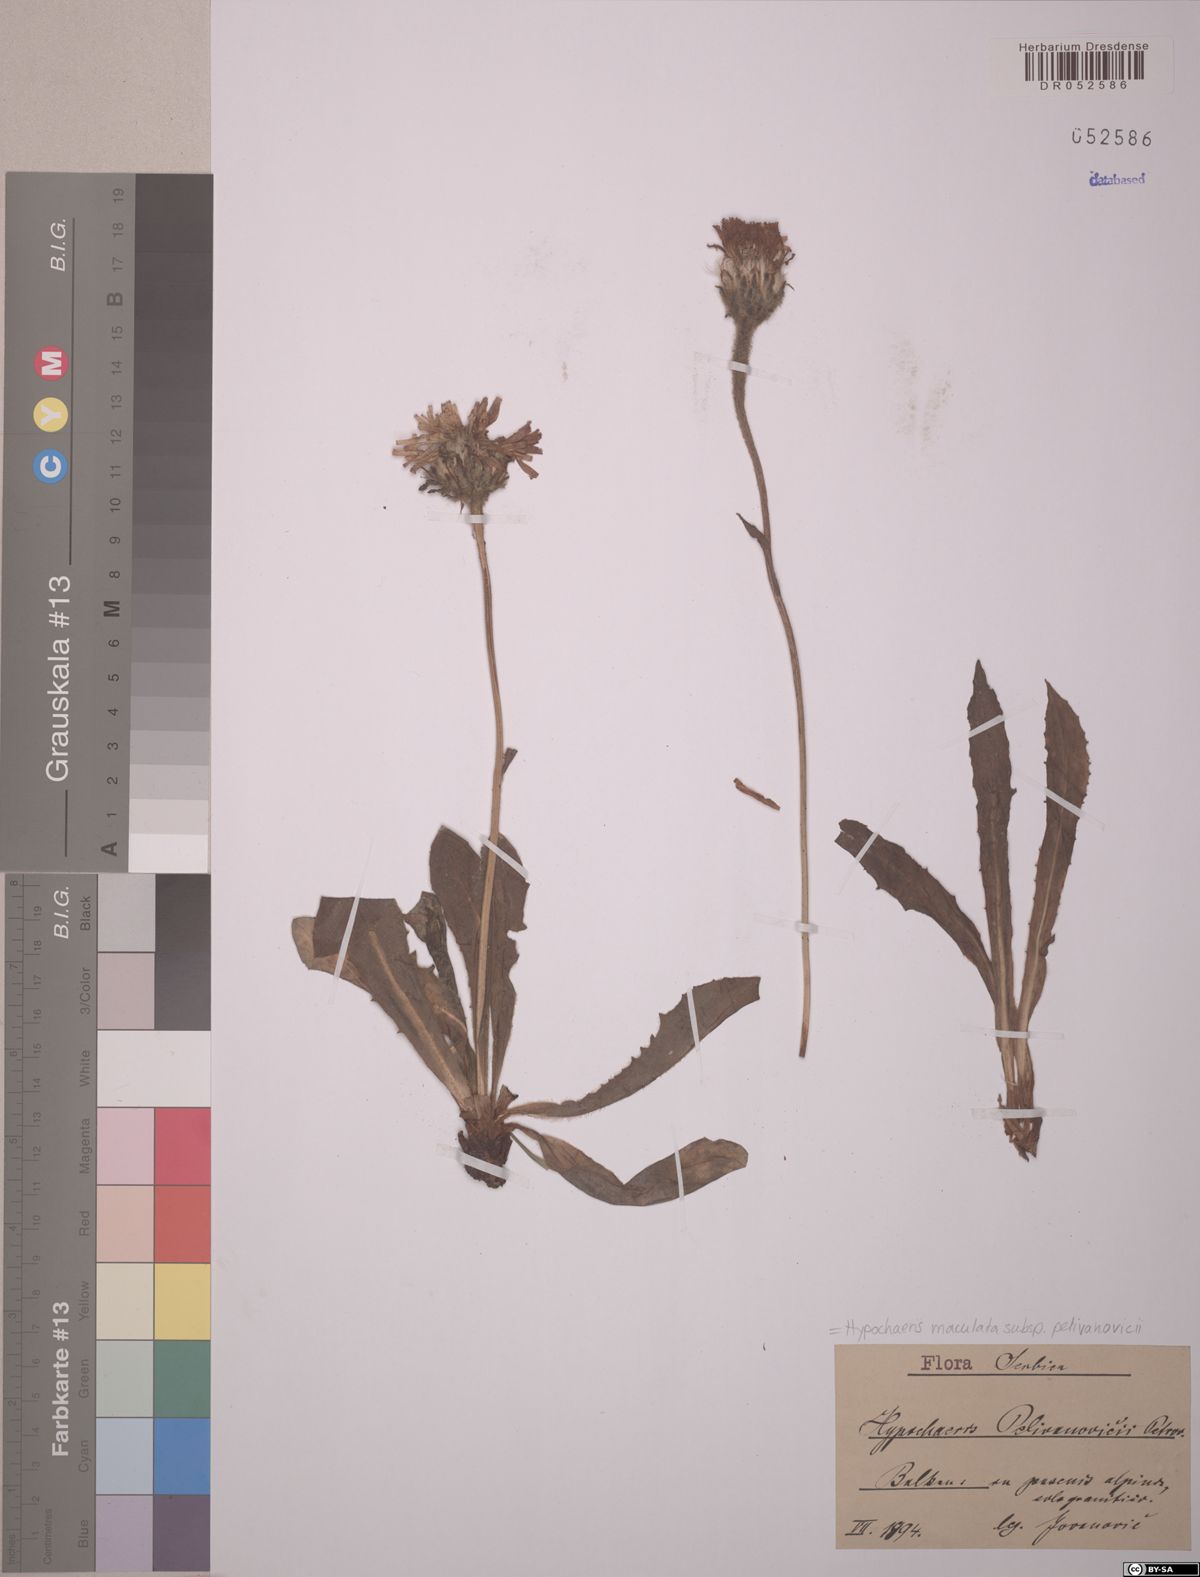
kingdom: Plantae
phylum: Tracheophyta
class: Magnoliopsida
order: Asterales
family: Asteraceae
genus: Trommsdorffia
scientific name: Trommsdorffia maculata
